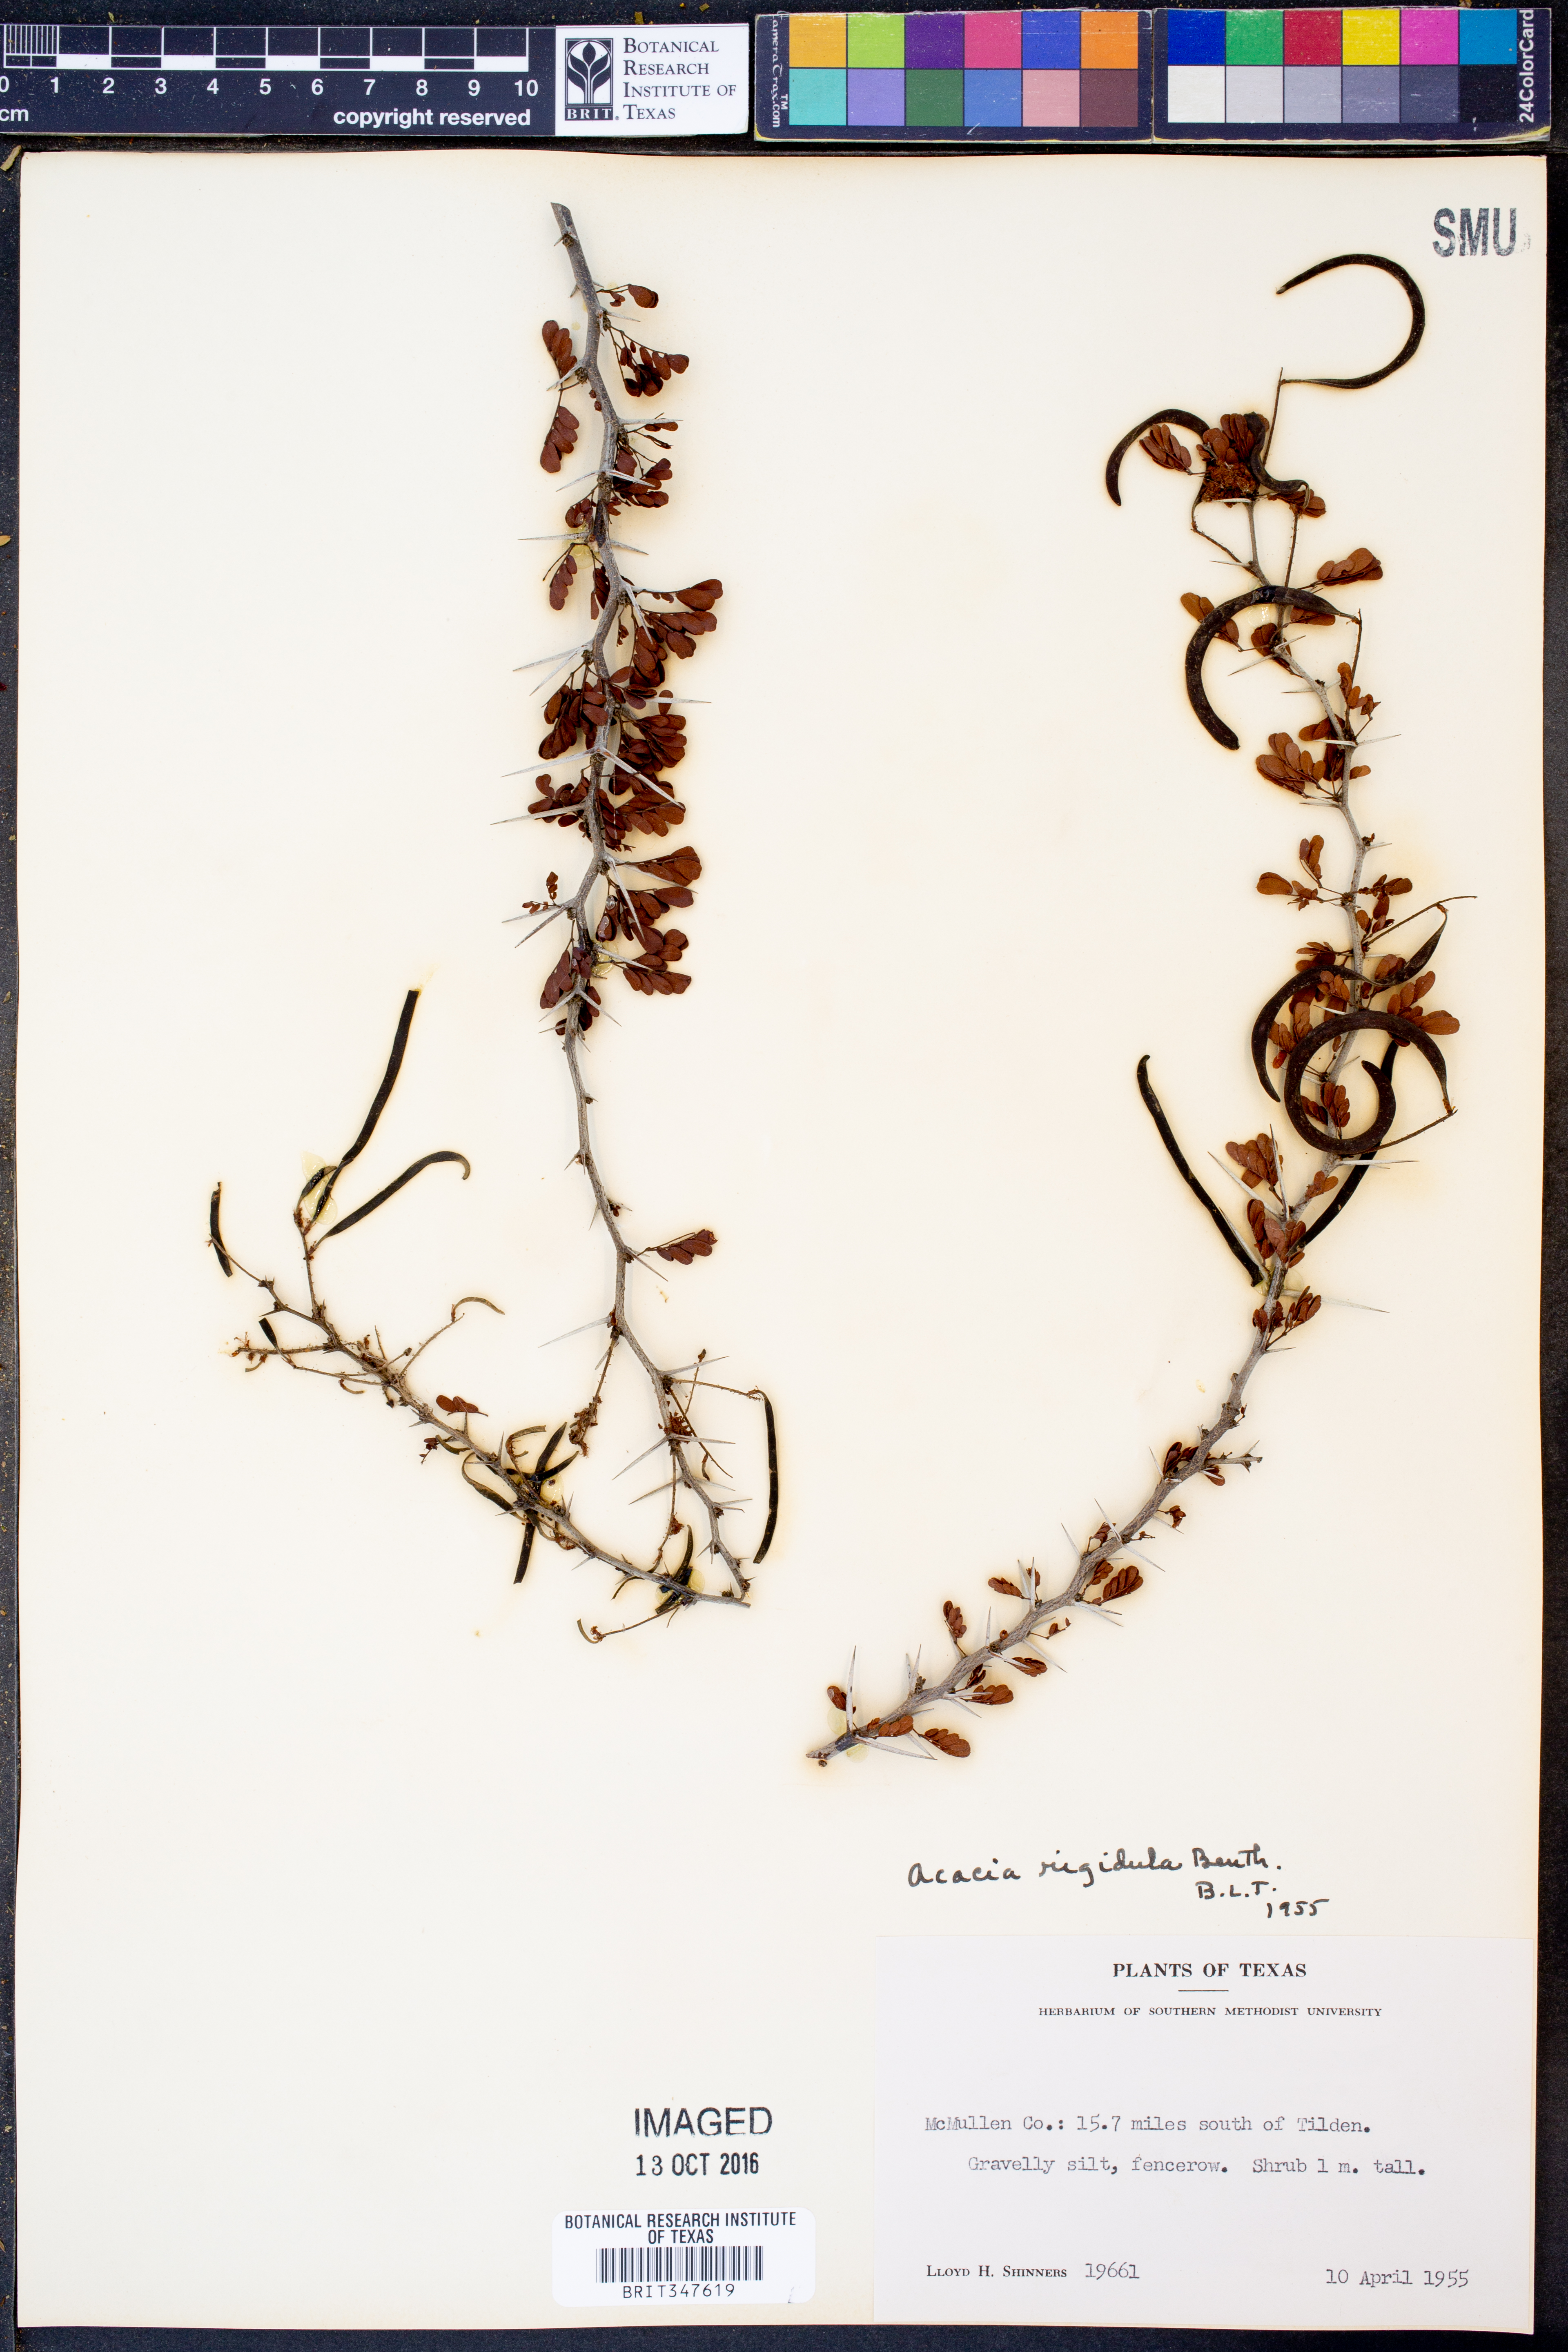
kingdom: Plantae
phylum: Tracheophyta
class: Magnoliopsida
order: Fabales
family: Fabaceae
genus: Vachellia
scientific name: Vachellia rigidula
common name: Blackbrush
